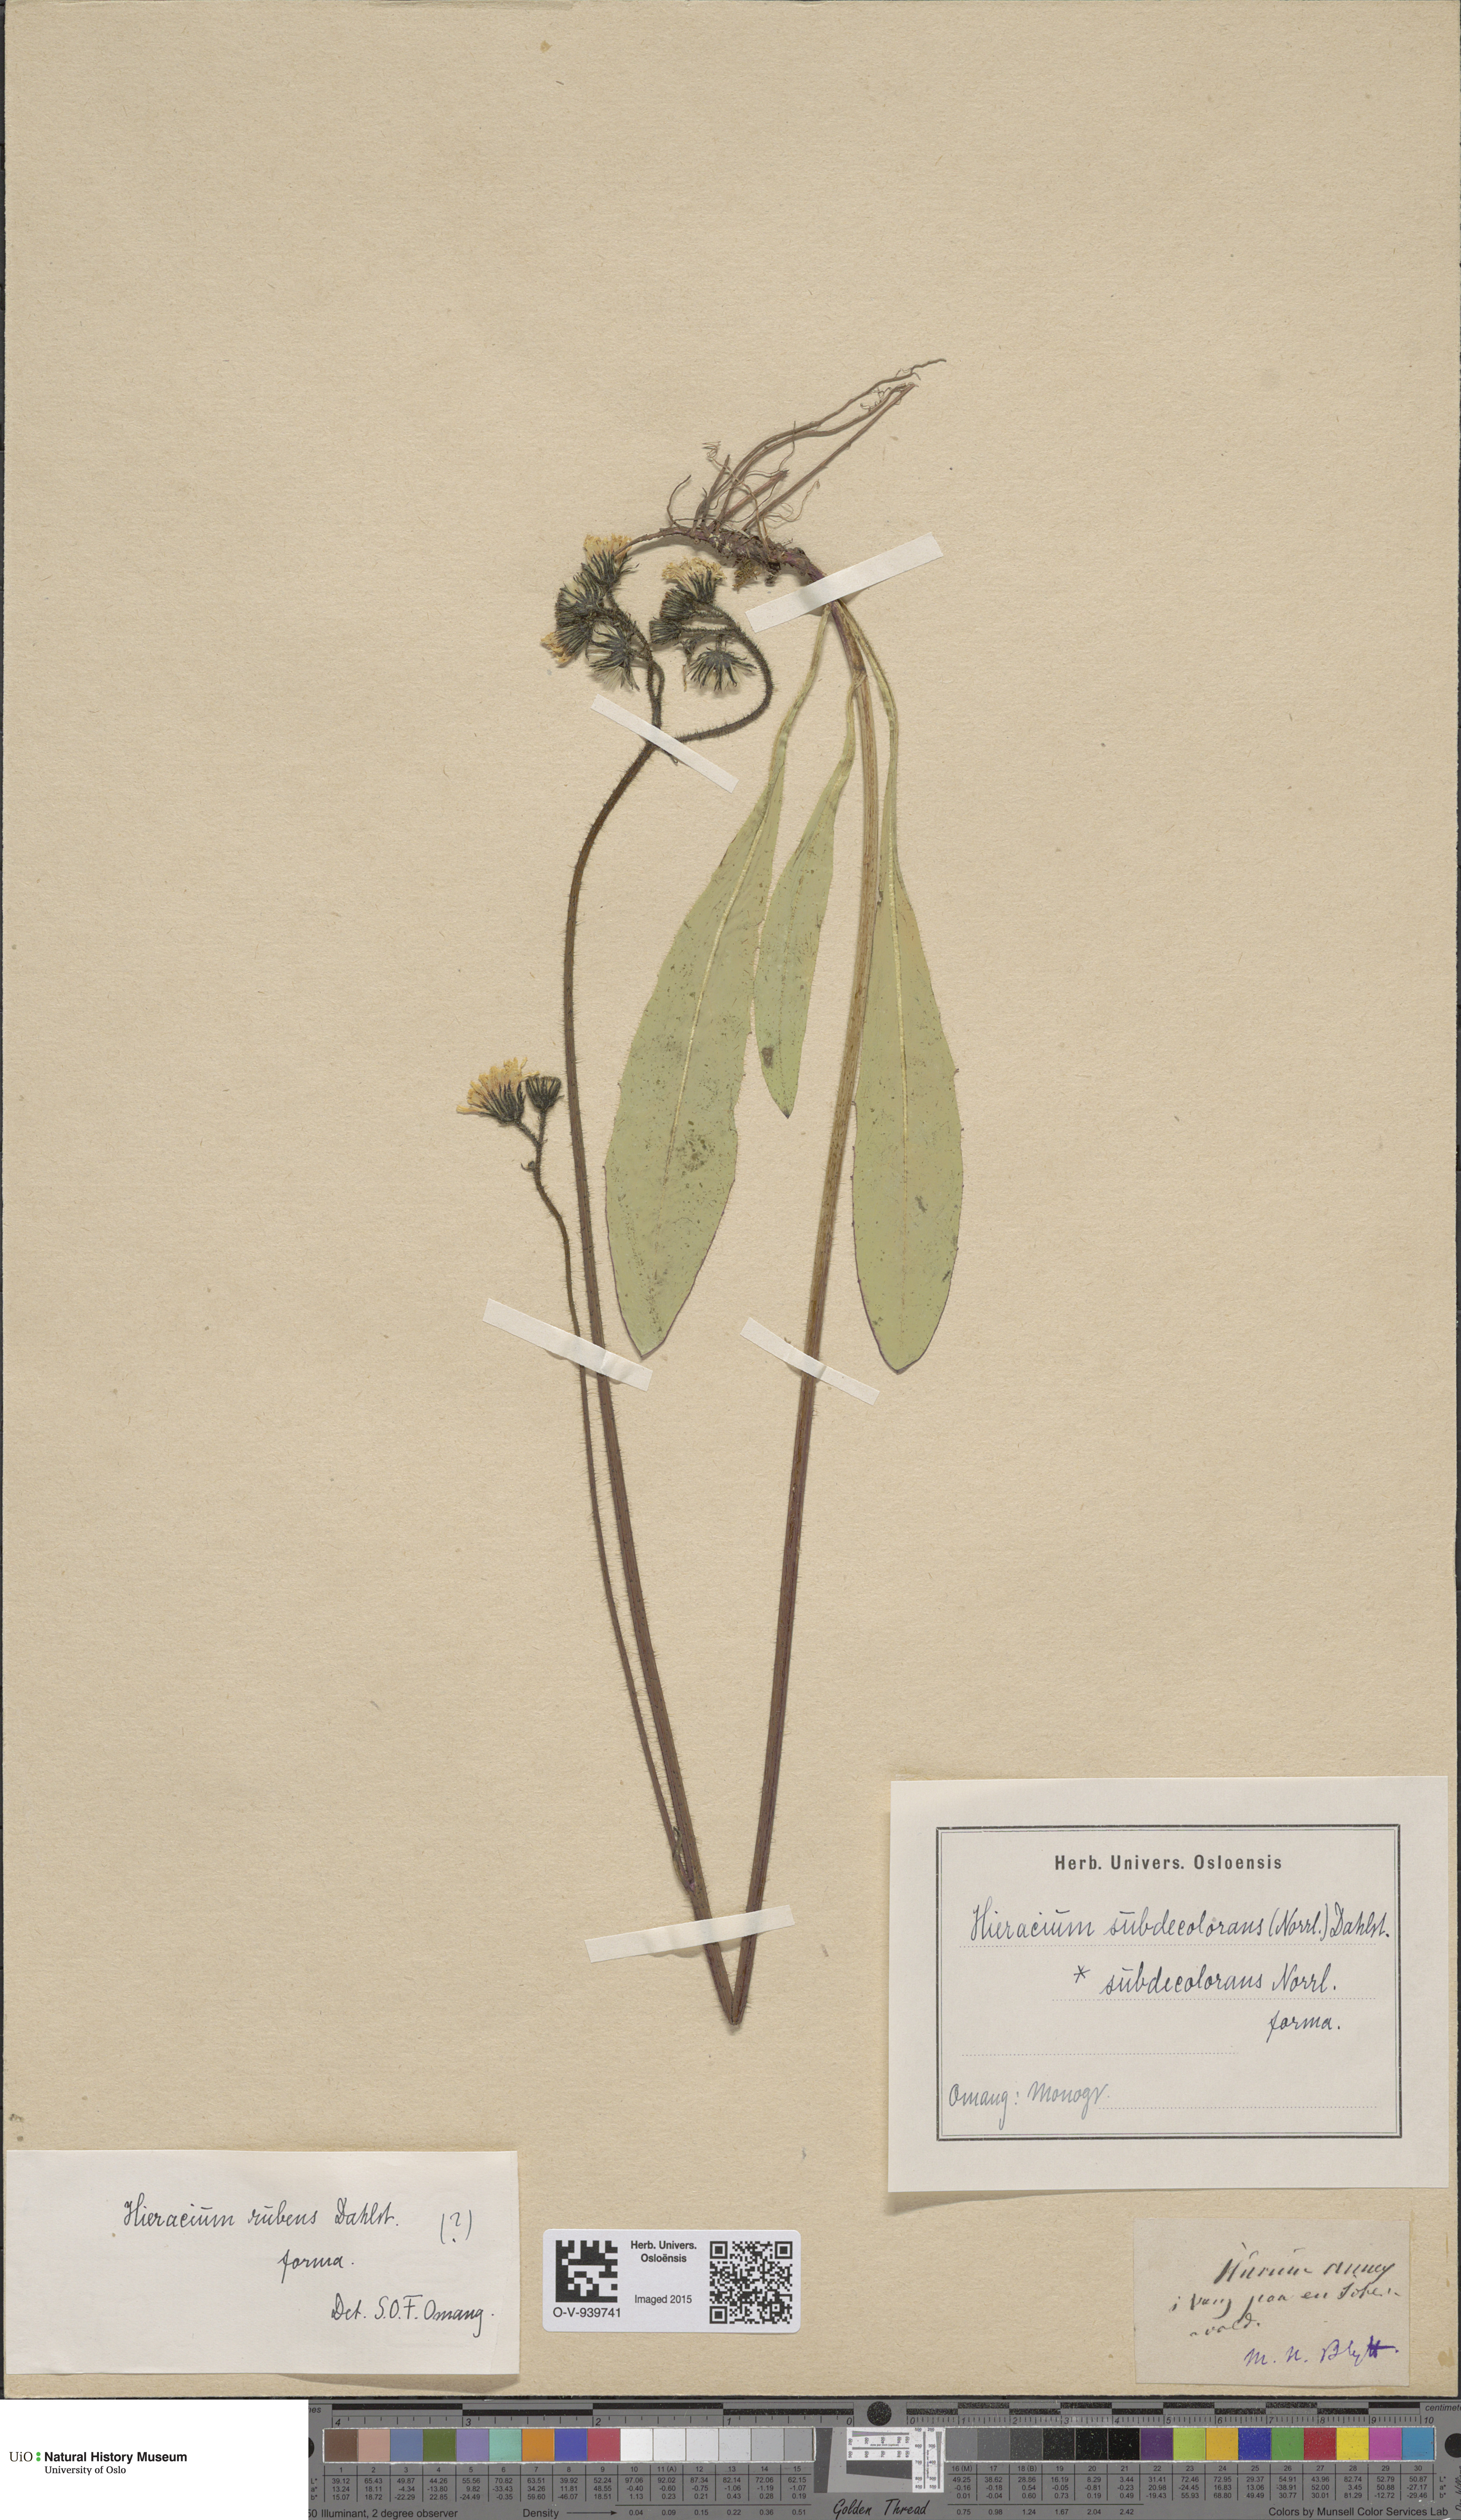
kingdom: Plantae
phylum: Tracheophyta
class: Magnoliopsida
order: Asterales
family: Asteraceae
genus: Pilosella
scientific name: Pilosella subdecolorans
